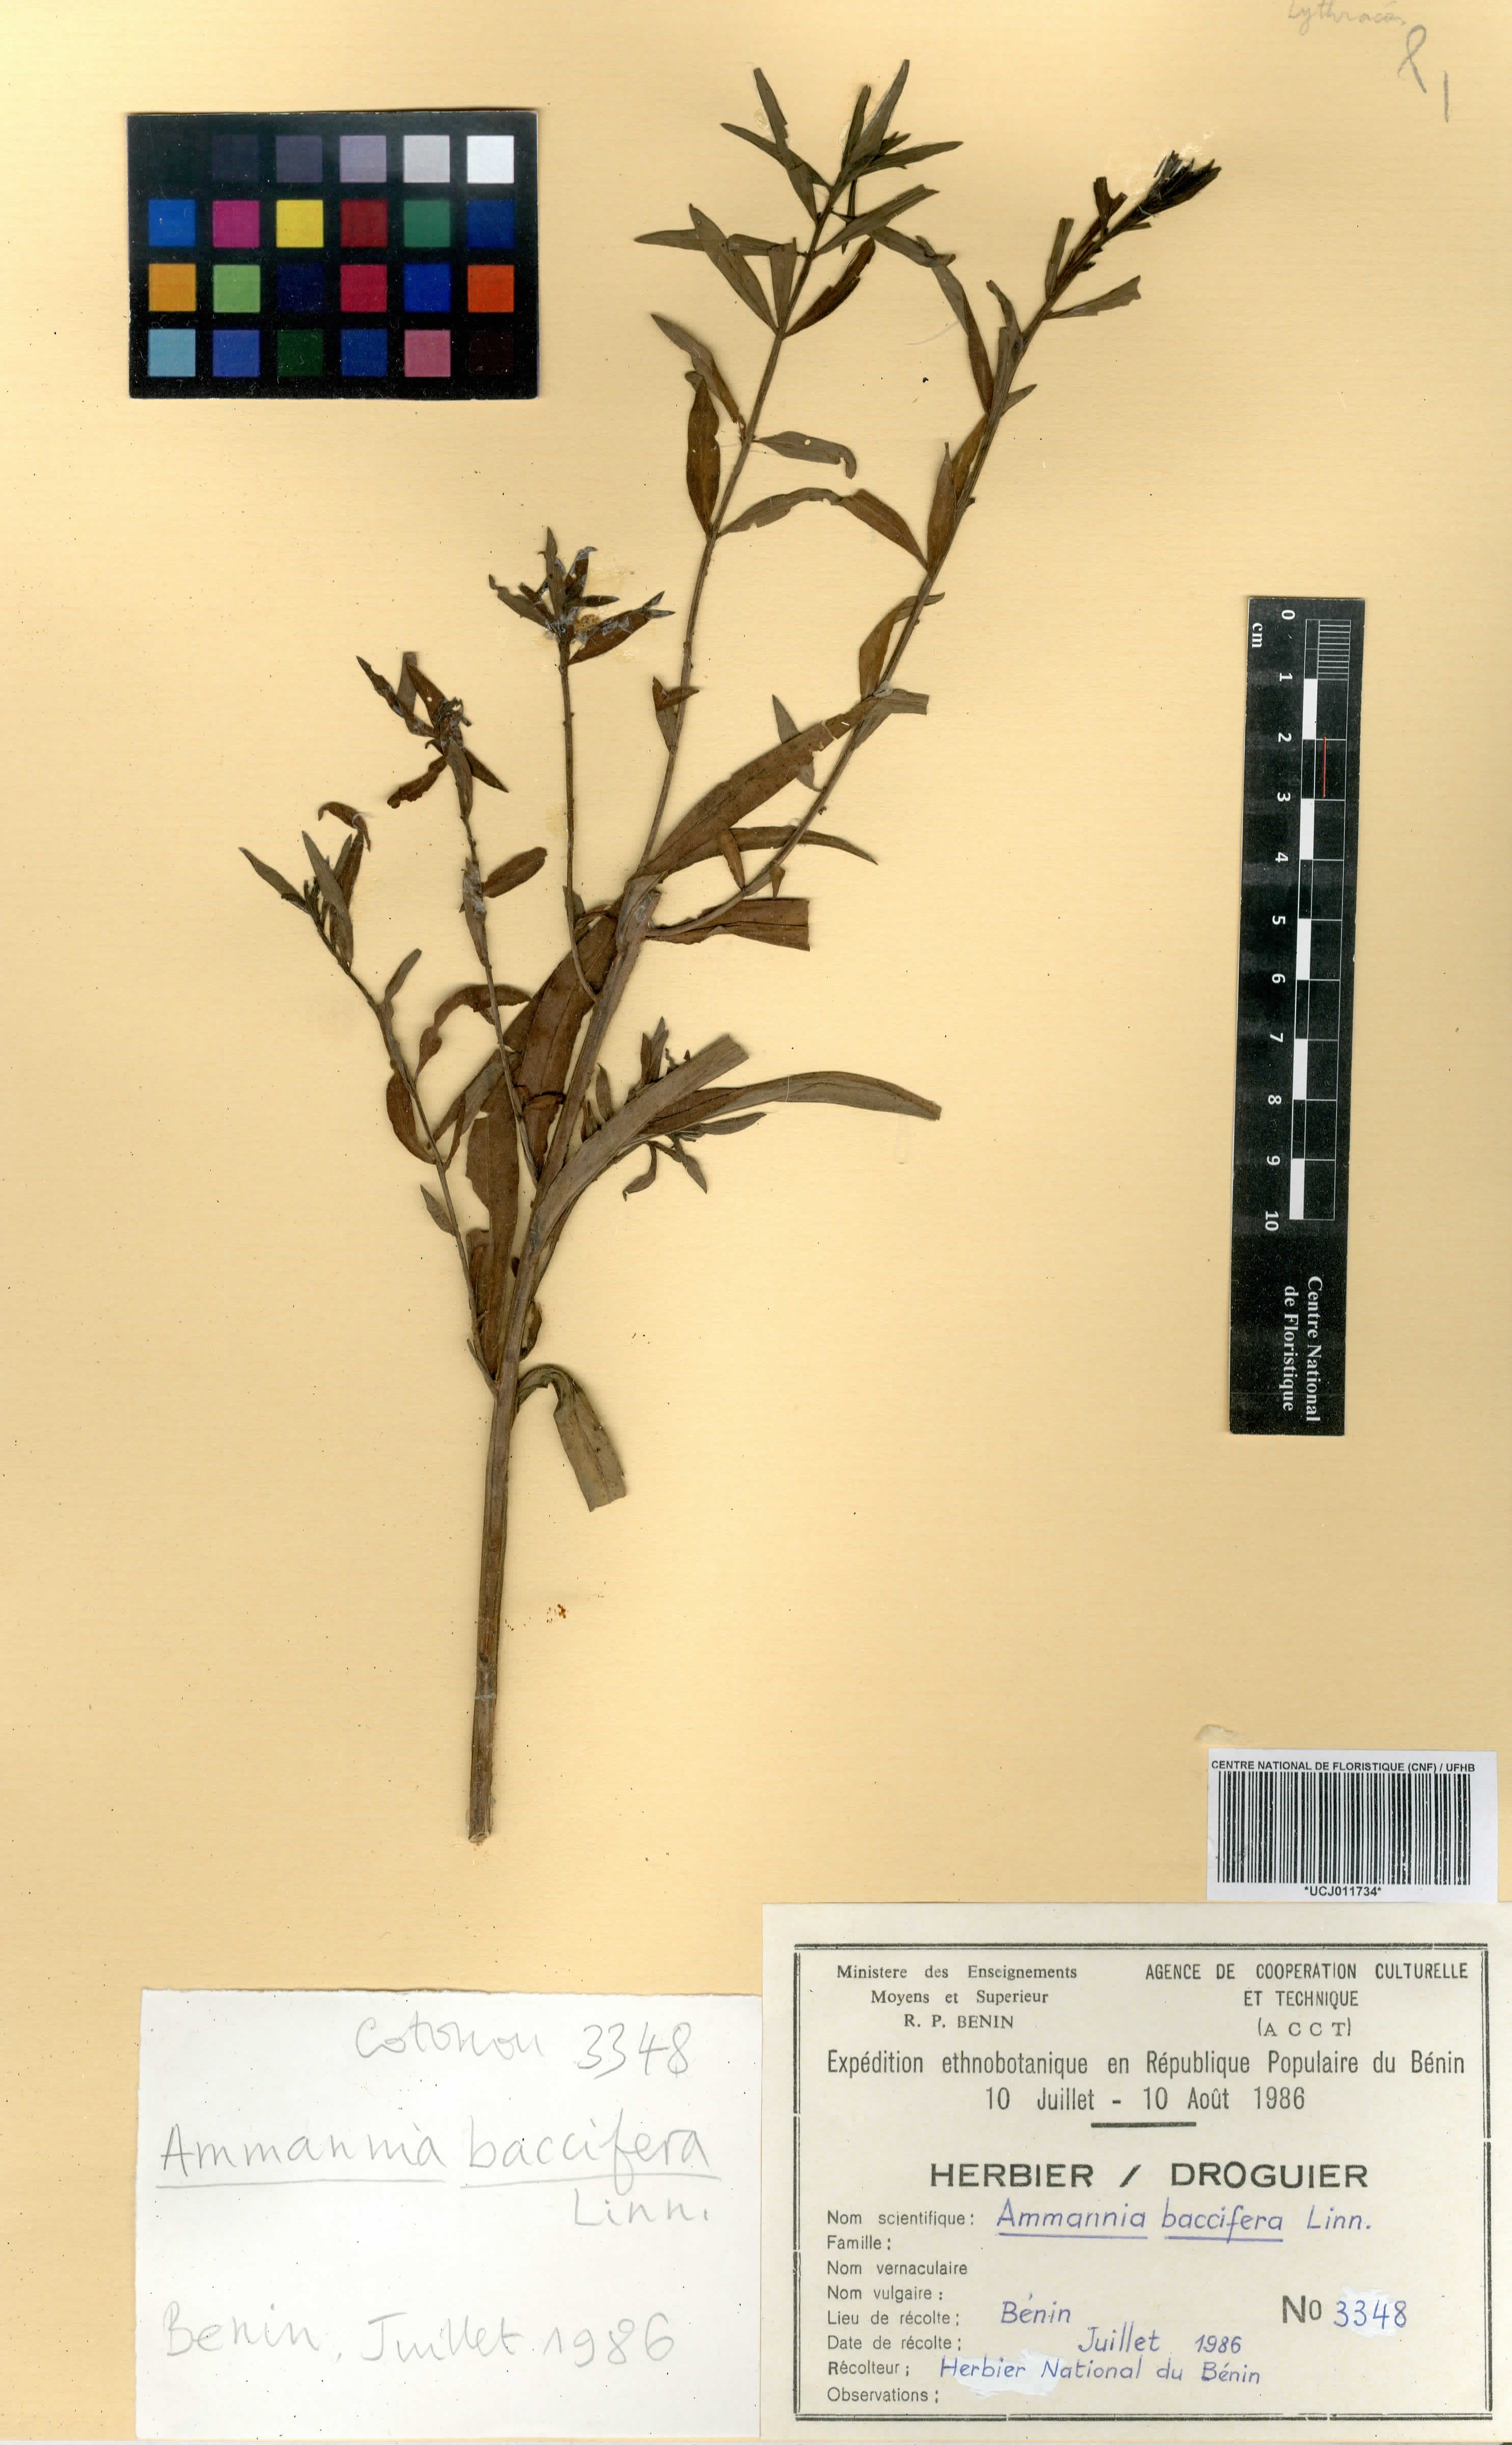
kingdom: Plantae
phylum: Tracheophyta
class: Magnoliopsida
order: Myrtales
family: Lythraceae
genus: Ammannia
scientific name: Ammannia baccifera
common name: Blistering ammania
